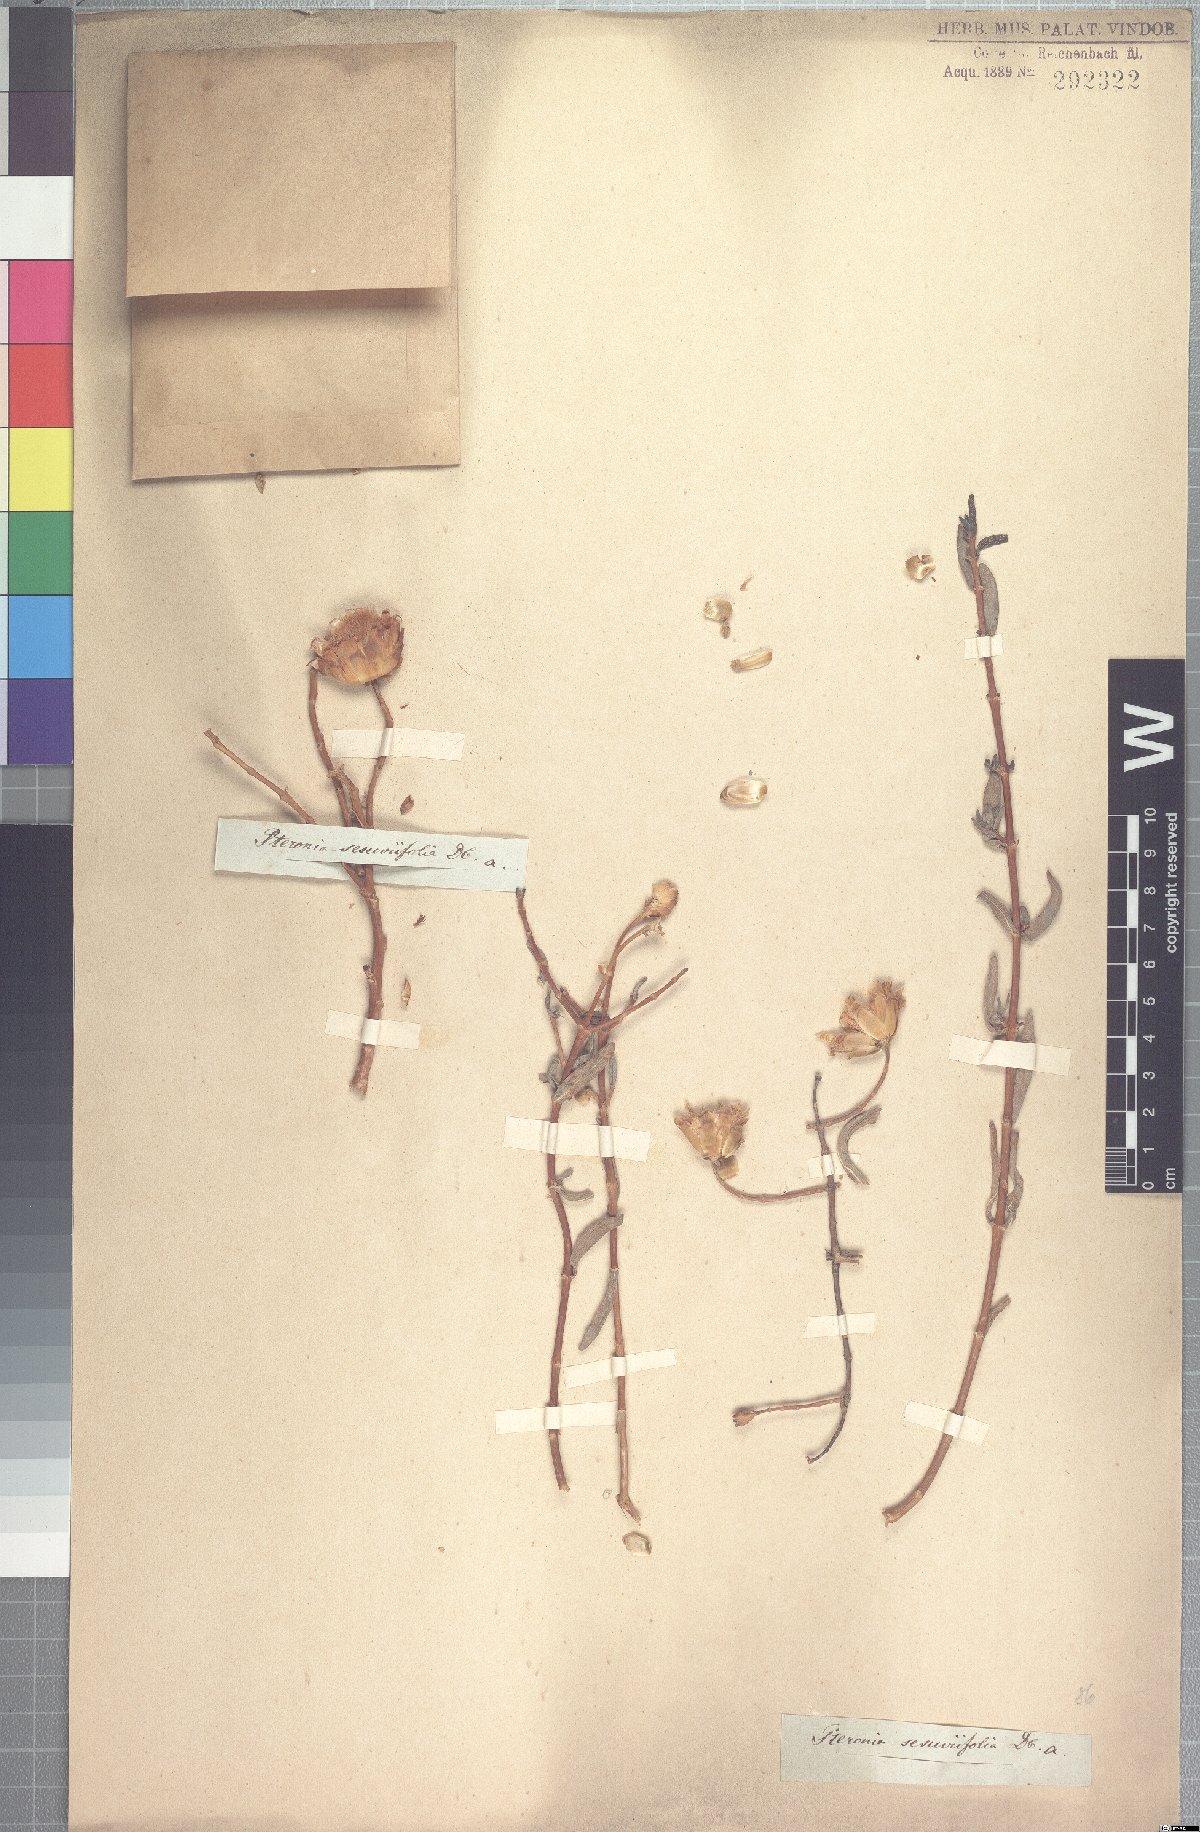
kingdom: Plantae
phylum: Tracheophyta
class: Magnoliopsida
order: Asterales
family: Asteraceae
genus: Pteronia
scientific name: Pteronia glabrata
